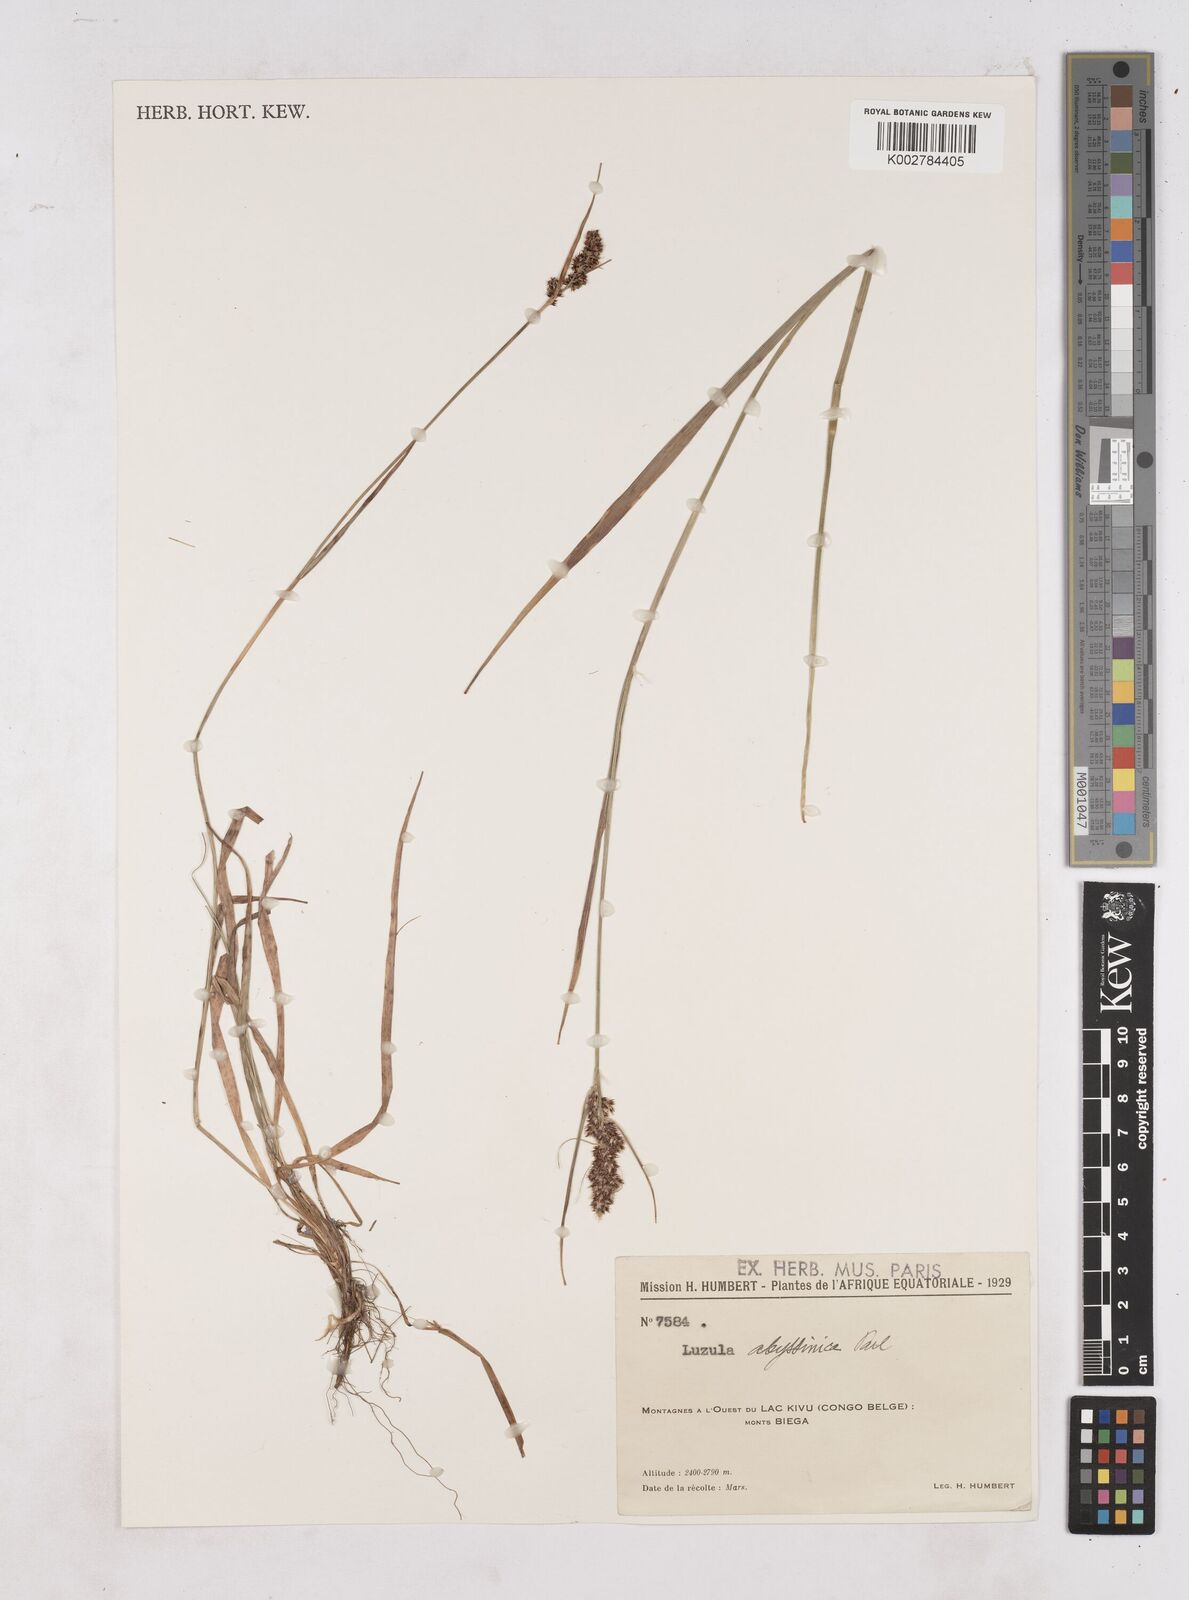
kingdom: Plantae
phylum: Tracheophyta
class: Liliopsida
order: Poales
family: Juncaceae
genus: Luzula
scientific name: Luzula abyssinica
